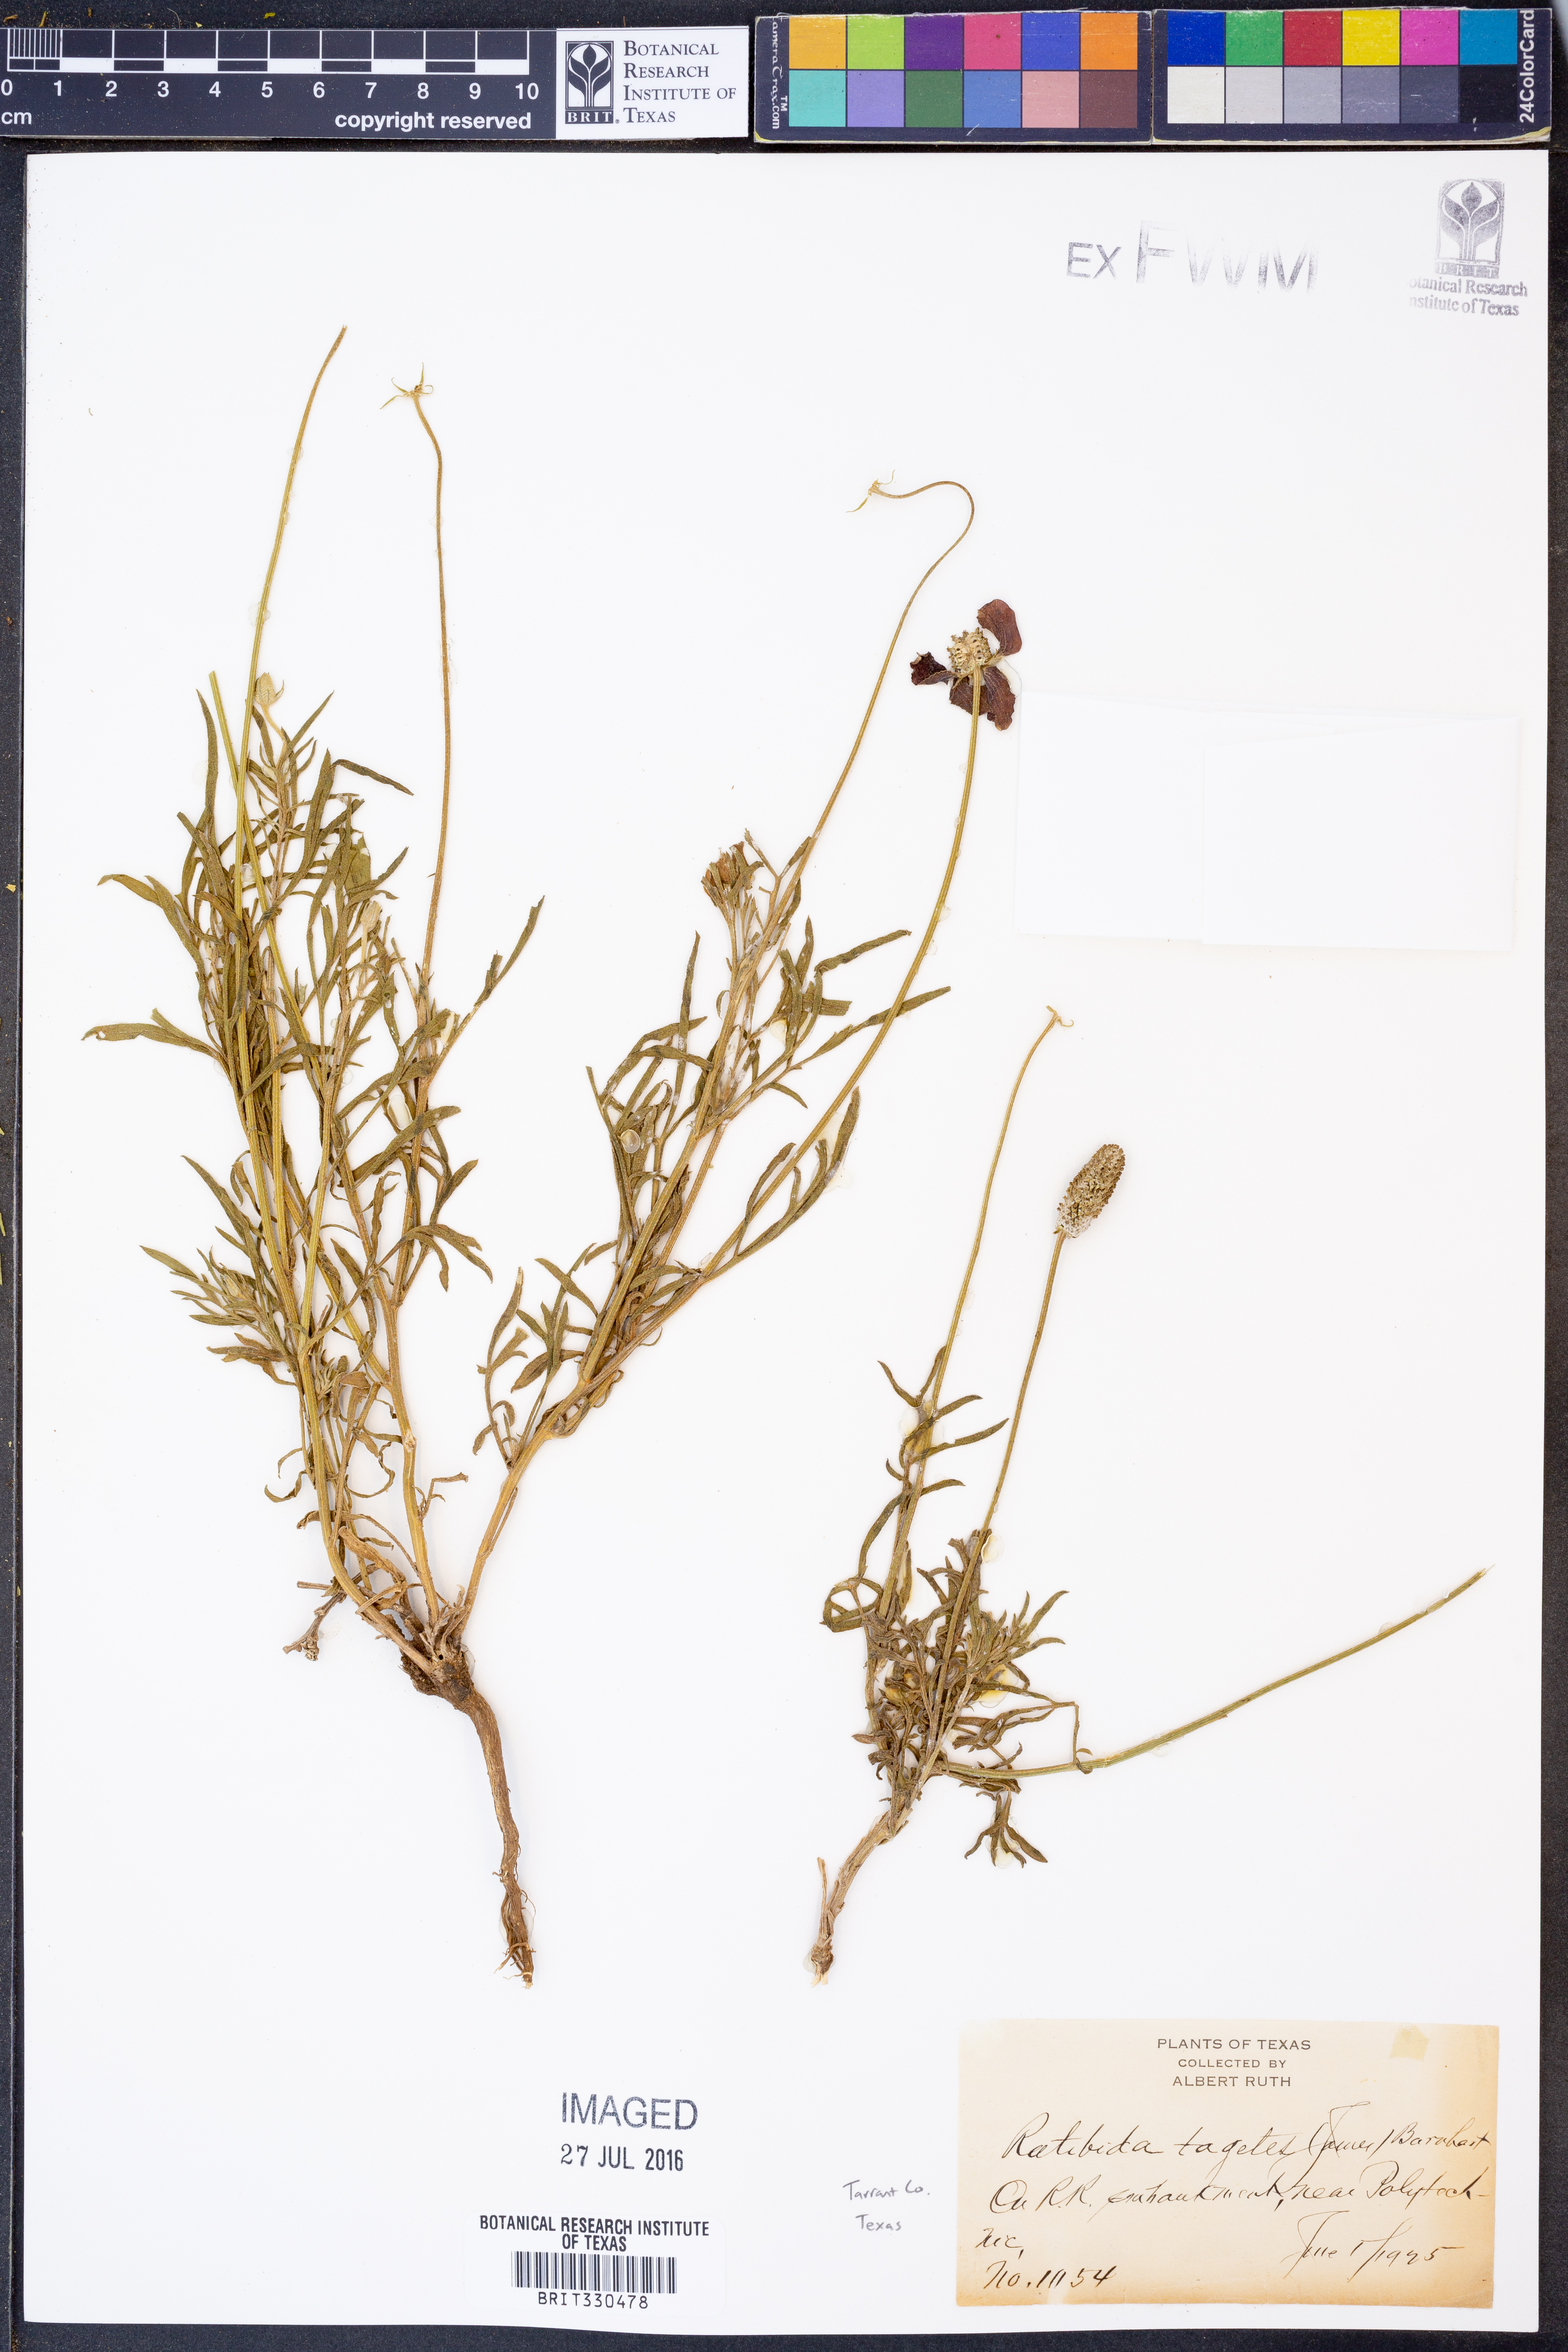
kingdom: Plantae
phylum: Tracheophyta
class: Magnoliopsida
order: Asterales
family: Asteraceae
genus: Ratibida
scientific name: Ratibida tagetes
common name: Green mexican-hat
